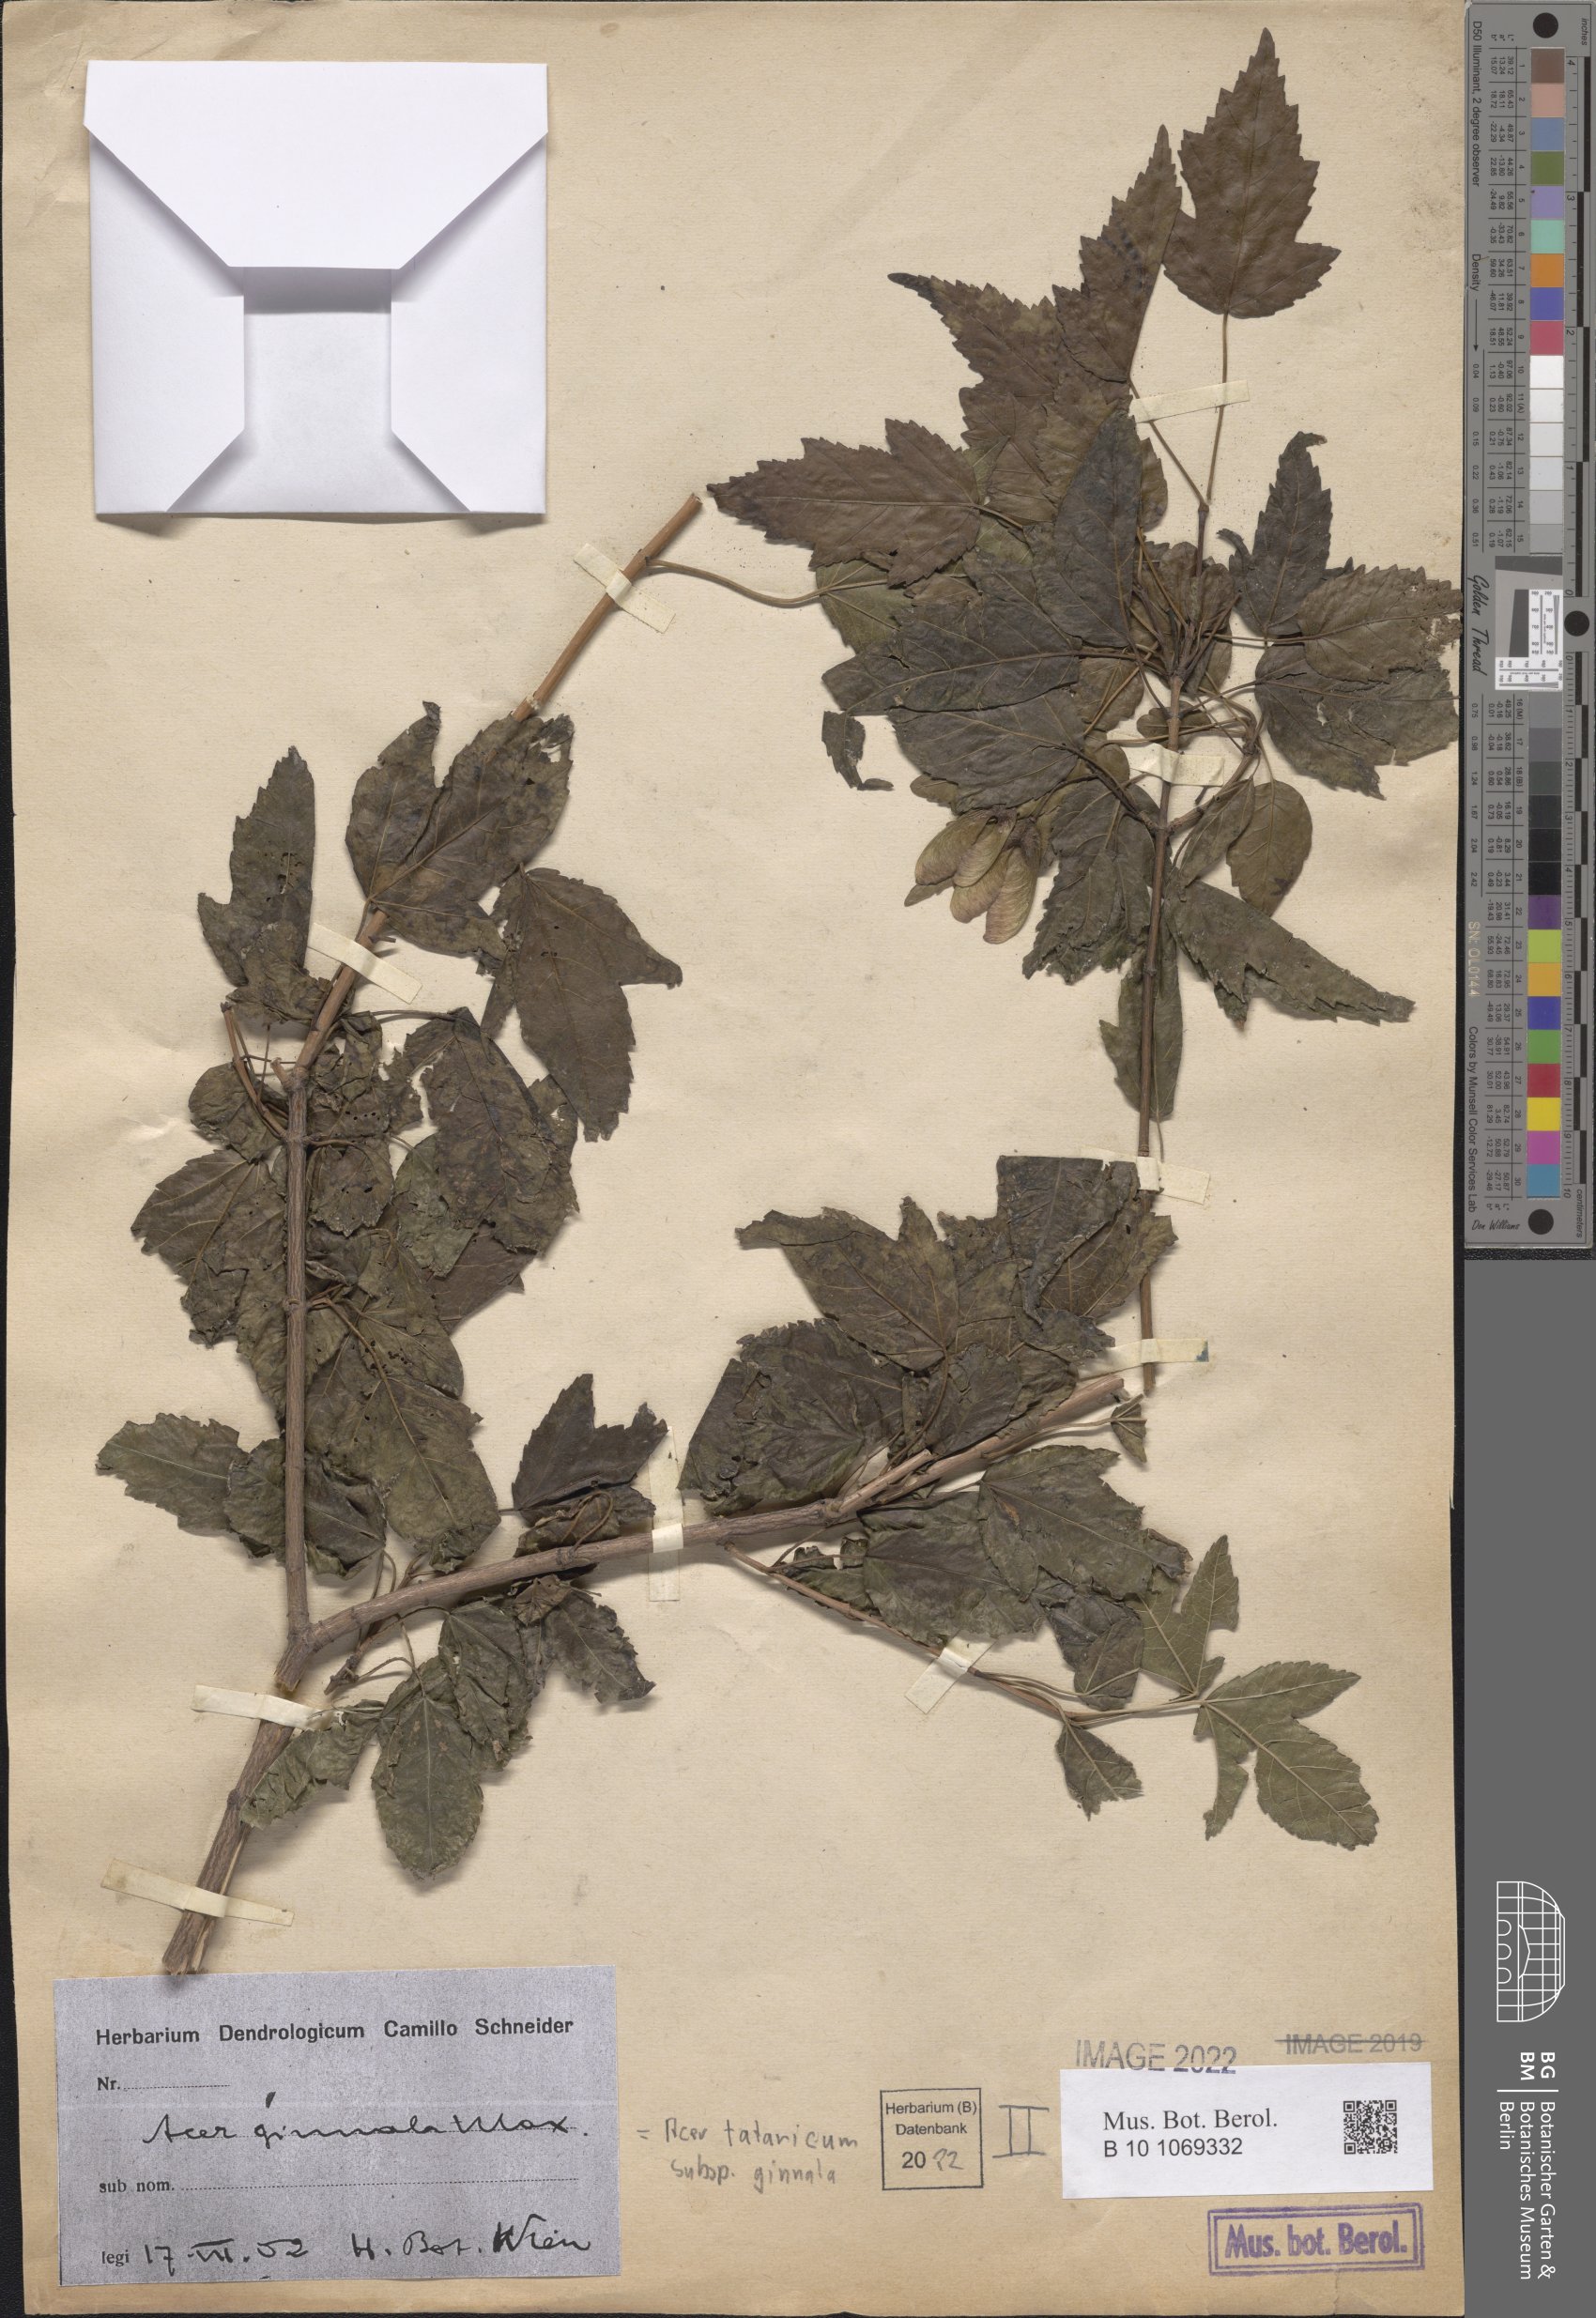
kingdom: Plantae
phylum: Tracheophyta
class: Magnoliopsida
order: Sapindales
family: Sapindaceae
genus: Acer
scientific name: Acer tataricum
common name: Tartar maple
